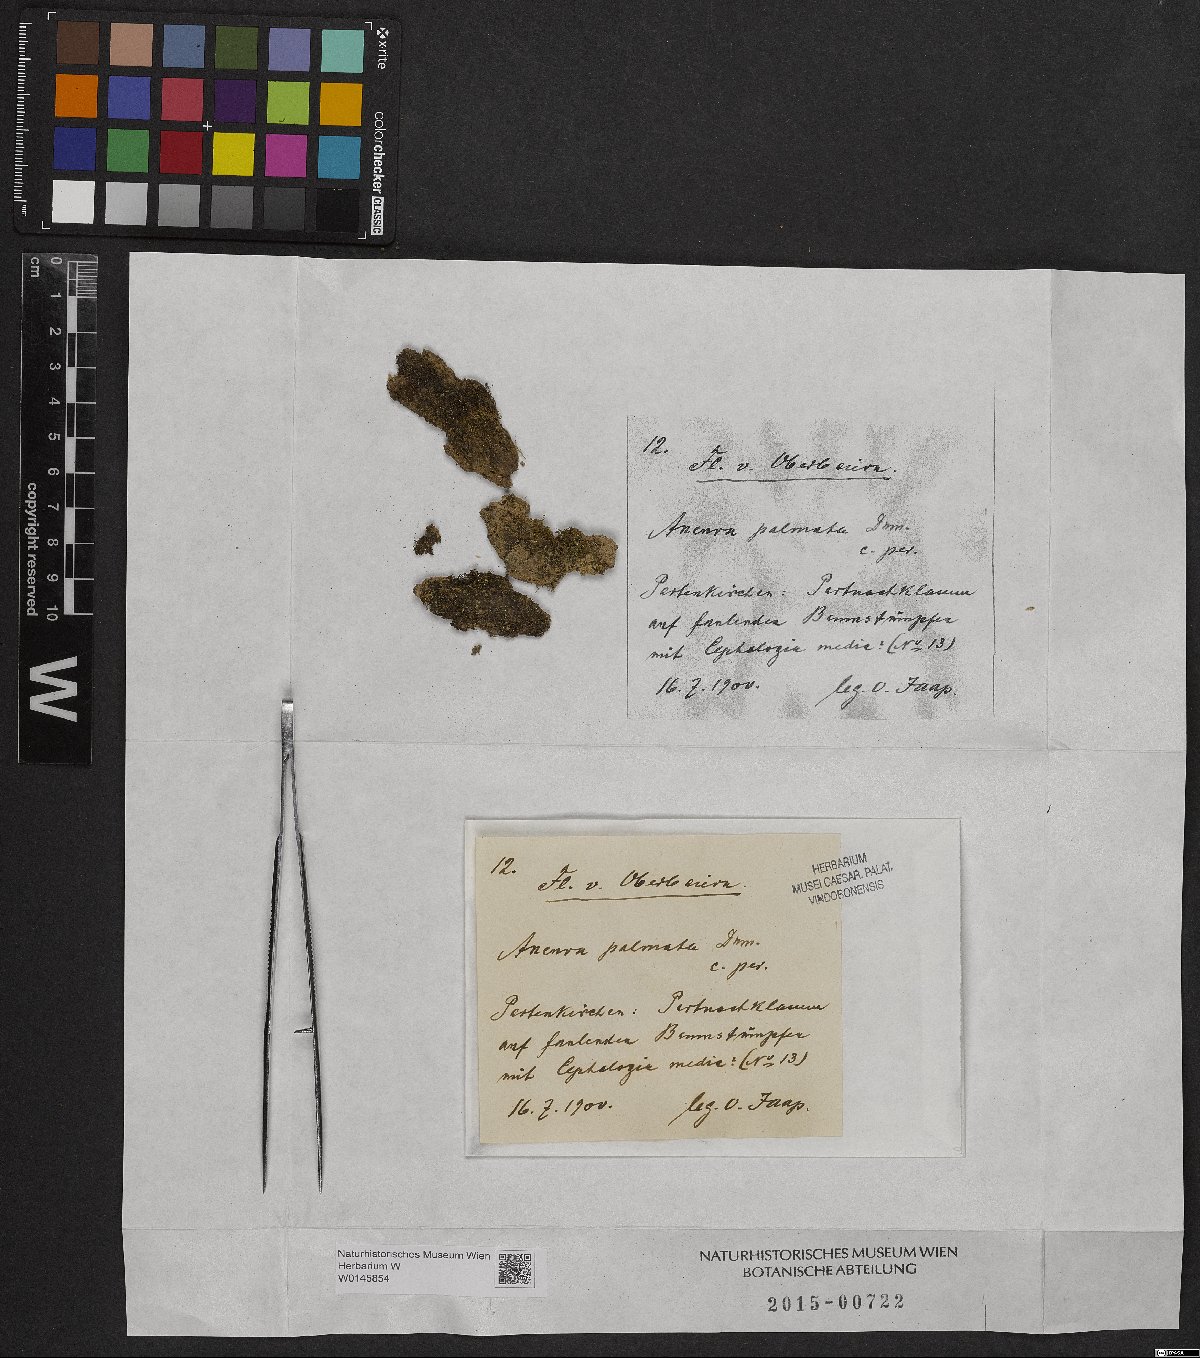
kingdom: Plantae
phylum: Marchantiophyta
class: Jungermanniopsida
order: Metzgeriales
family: Aneuraceae
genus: Riccardia
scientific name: Riccardia palmata
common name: Palmate germanderwort
